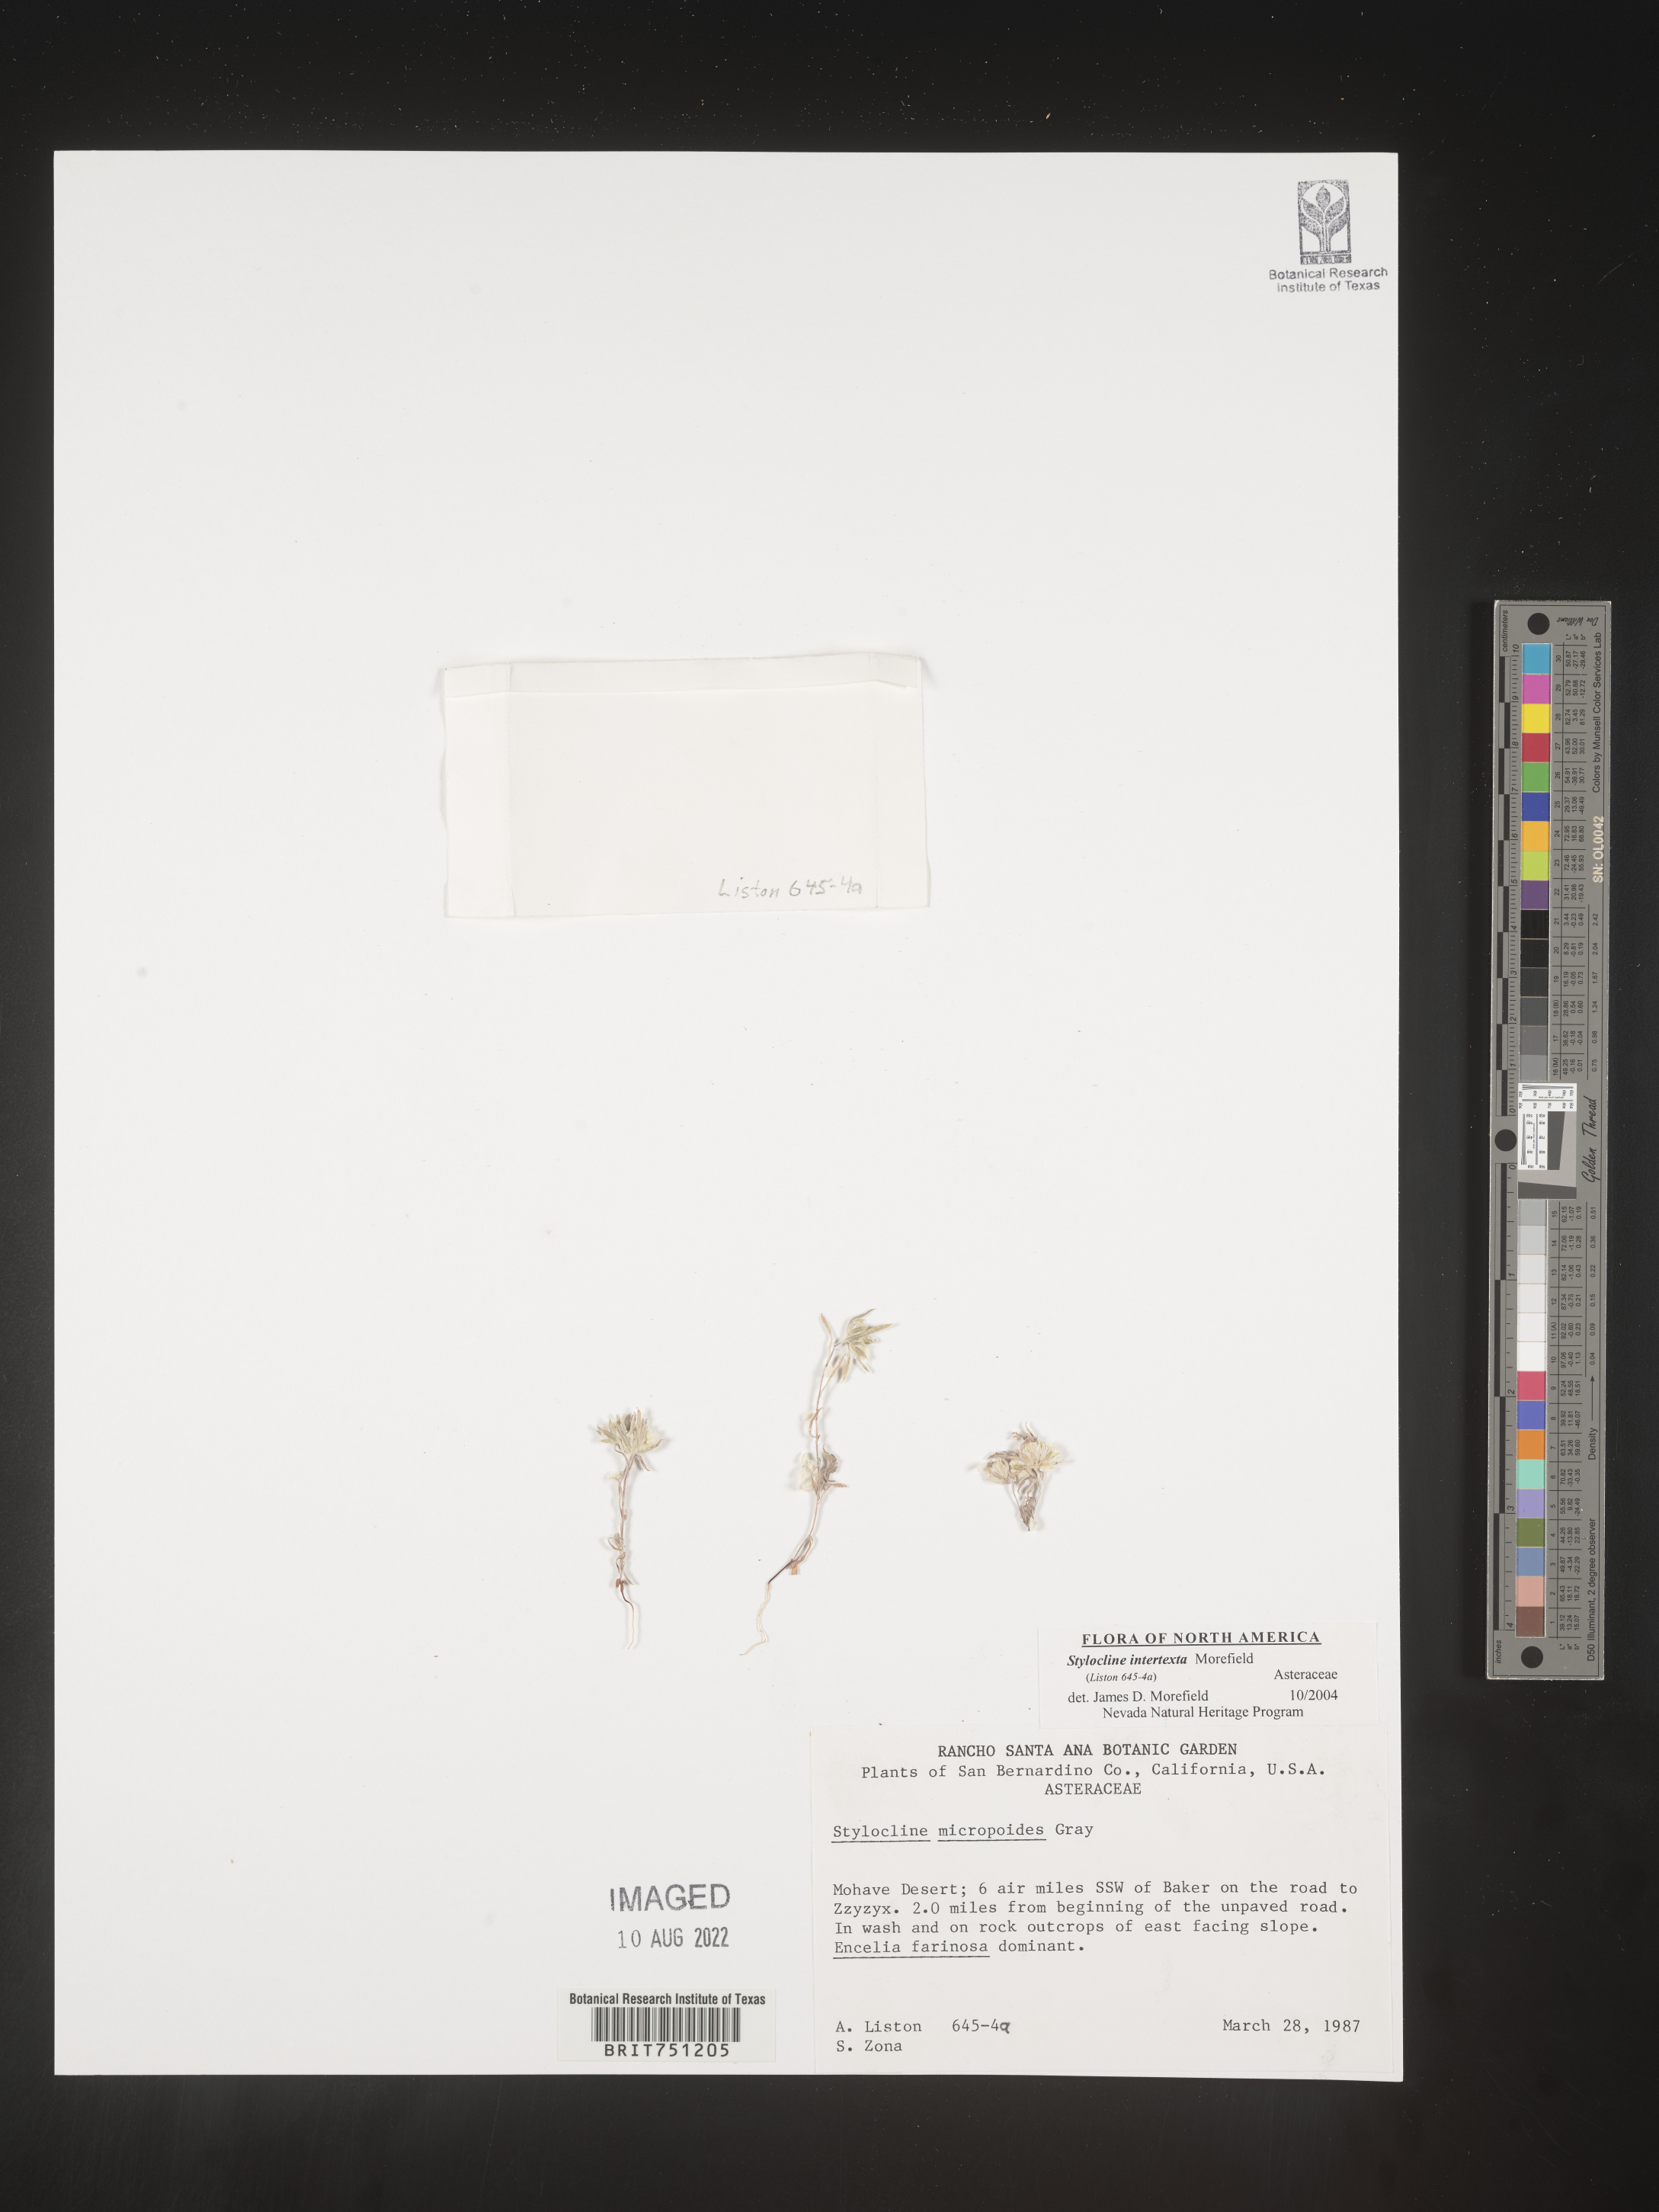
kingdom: Plantae
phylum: Tracheophyta
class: Magnoliopsida
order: Asterales
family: Asteraceae
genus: Stylocline
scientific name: Stylocline
